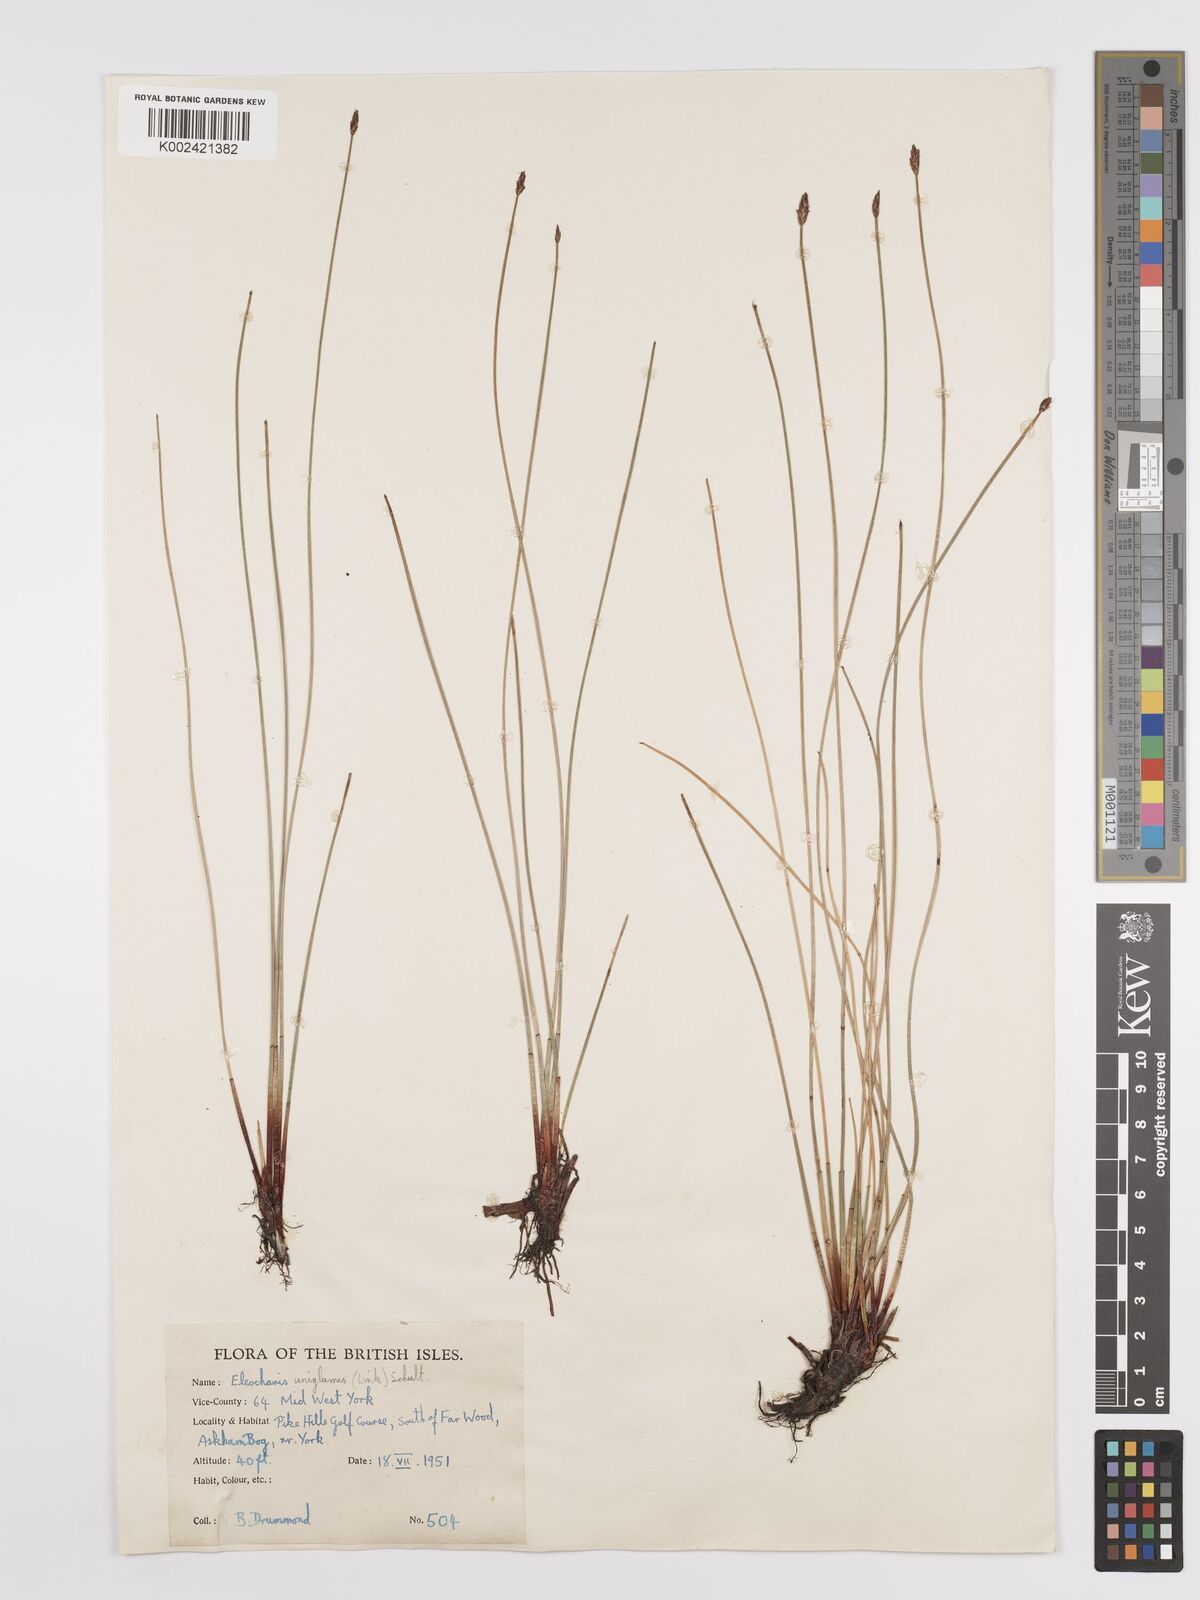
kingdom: Plantae
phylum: Tracheophyta
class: Liliopsida
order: Poales
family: Cyperaceae
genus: Eleocharis
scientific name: Eleocharis uniglumis
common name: Slender spike-rush
